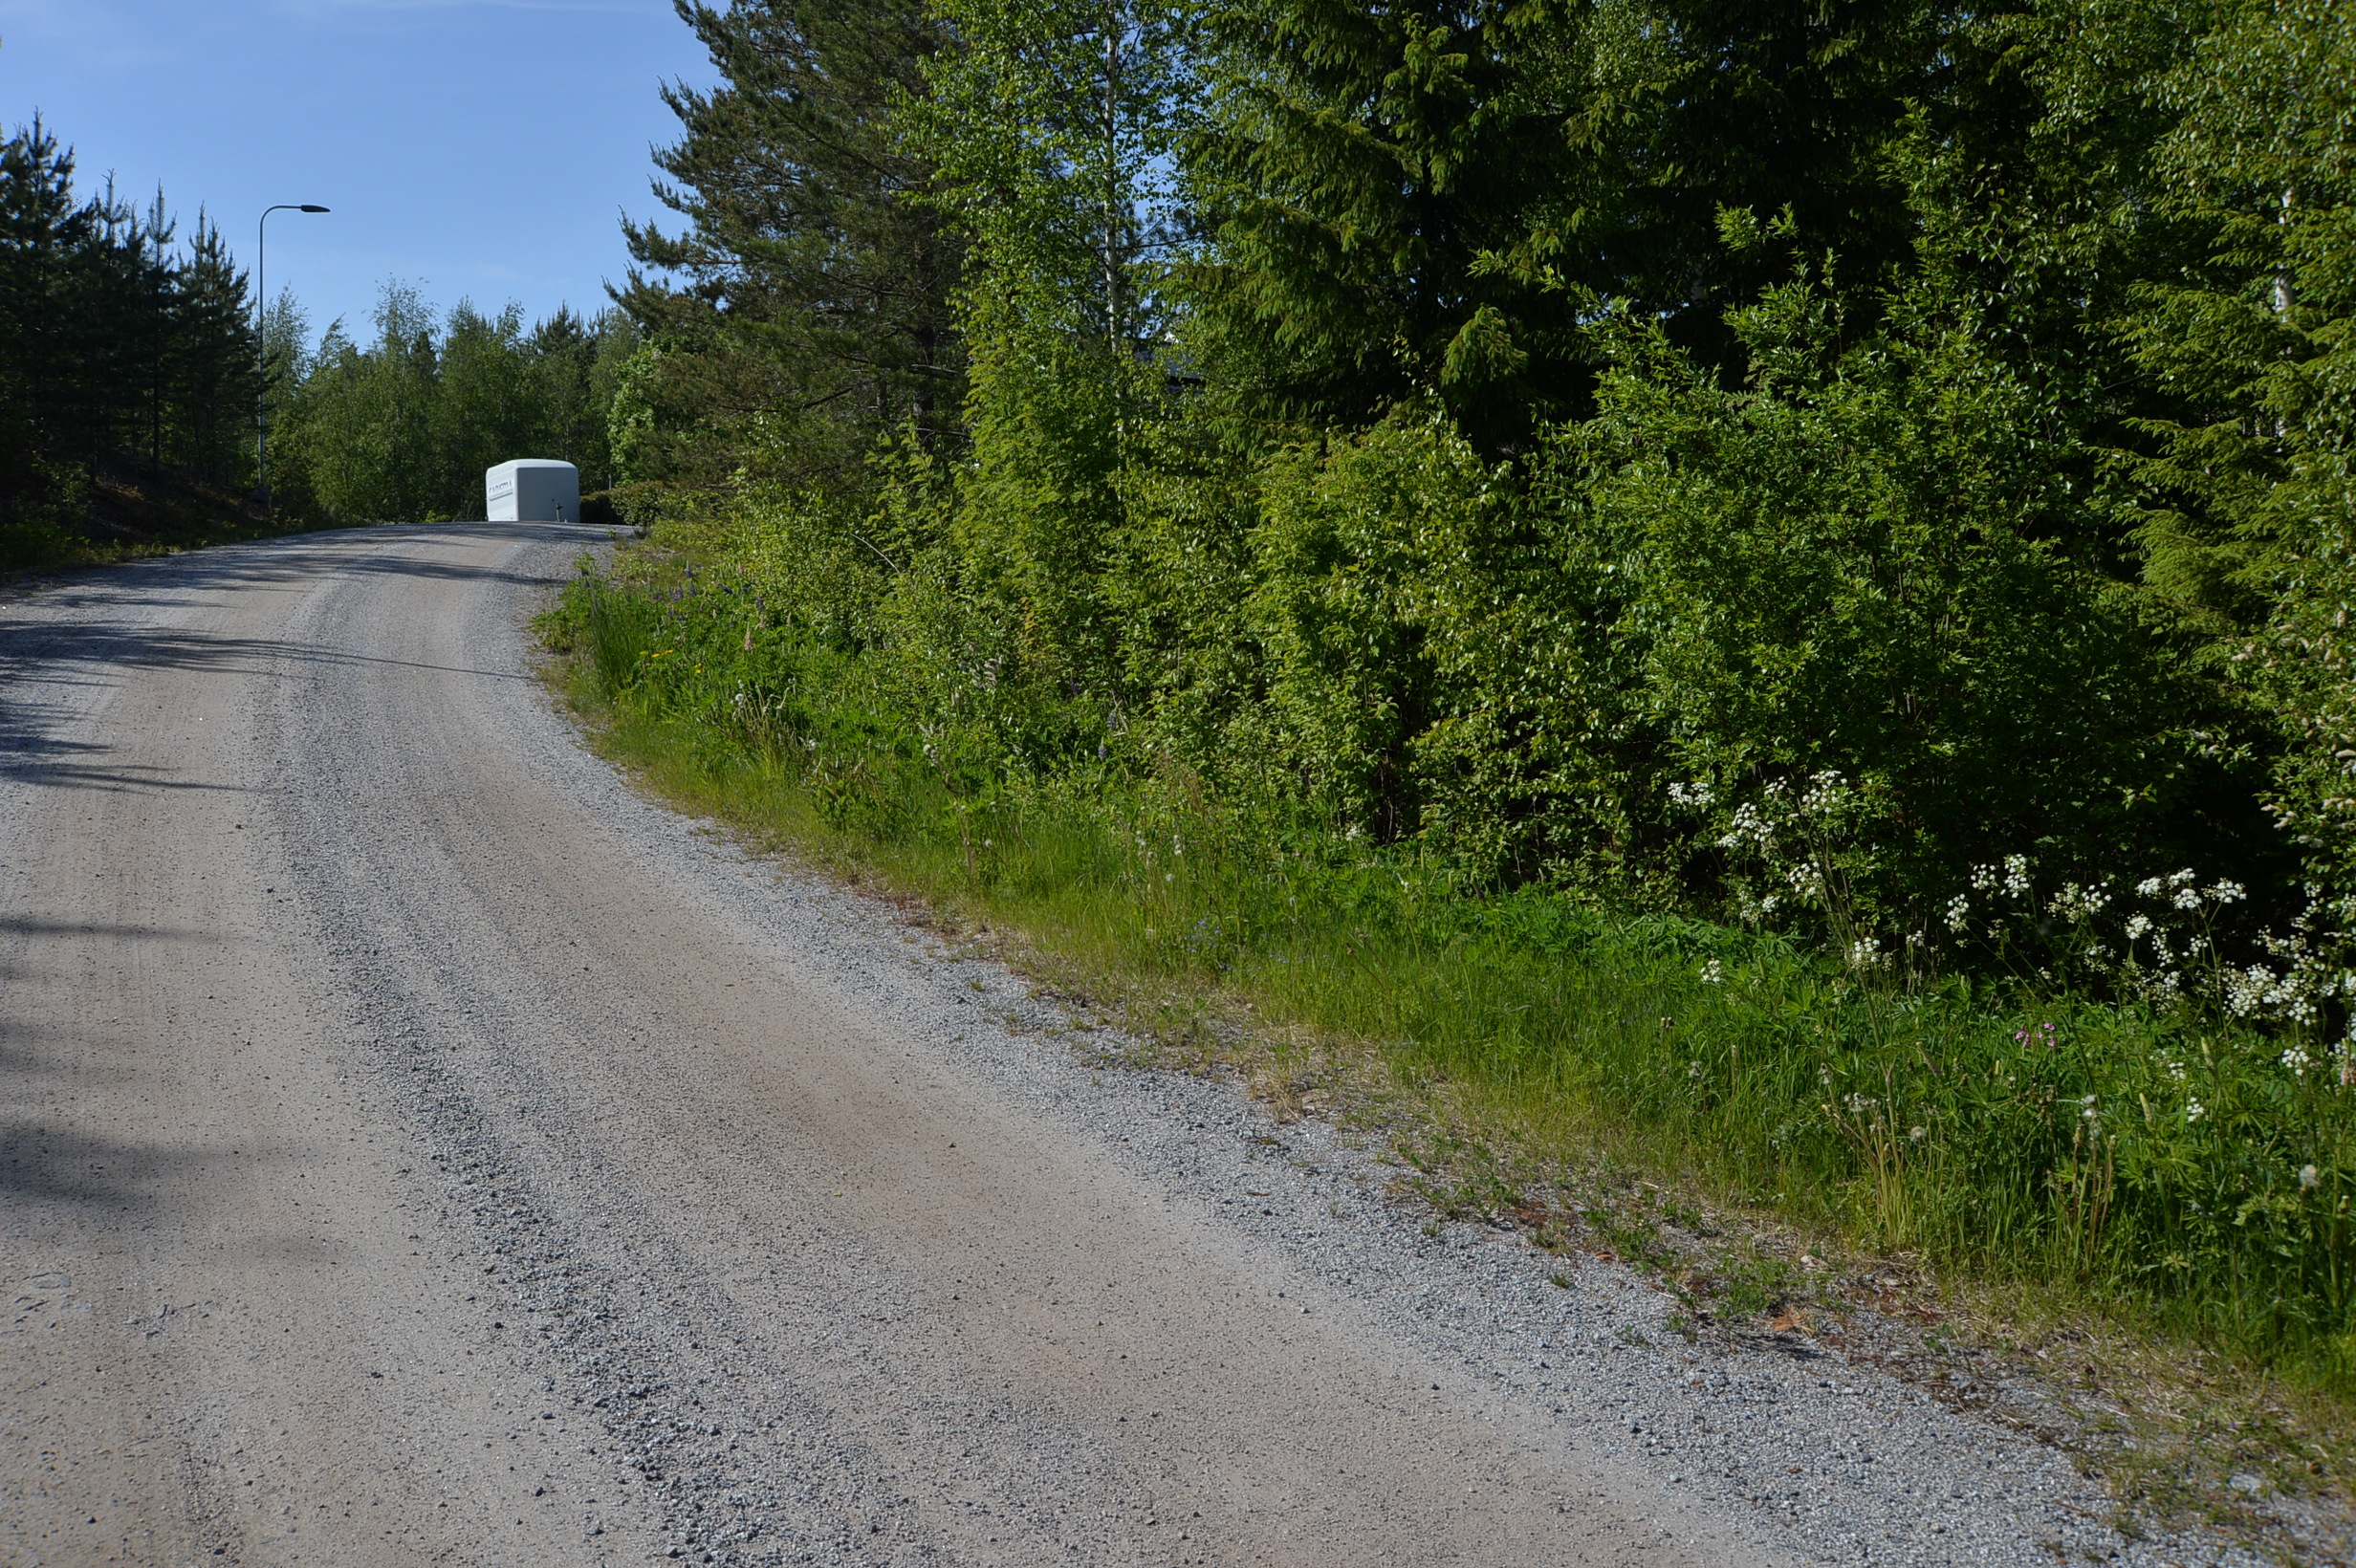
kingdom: Plantae
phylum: Tracheophyta
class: Magnoliopsida
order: Fabales
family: Fabaceae
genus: Lupinus
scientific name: Lupinus polyphyllus
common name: Garden lupin
